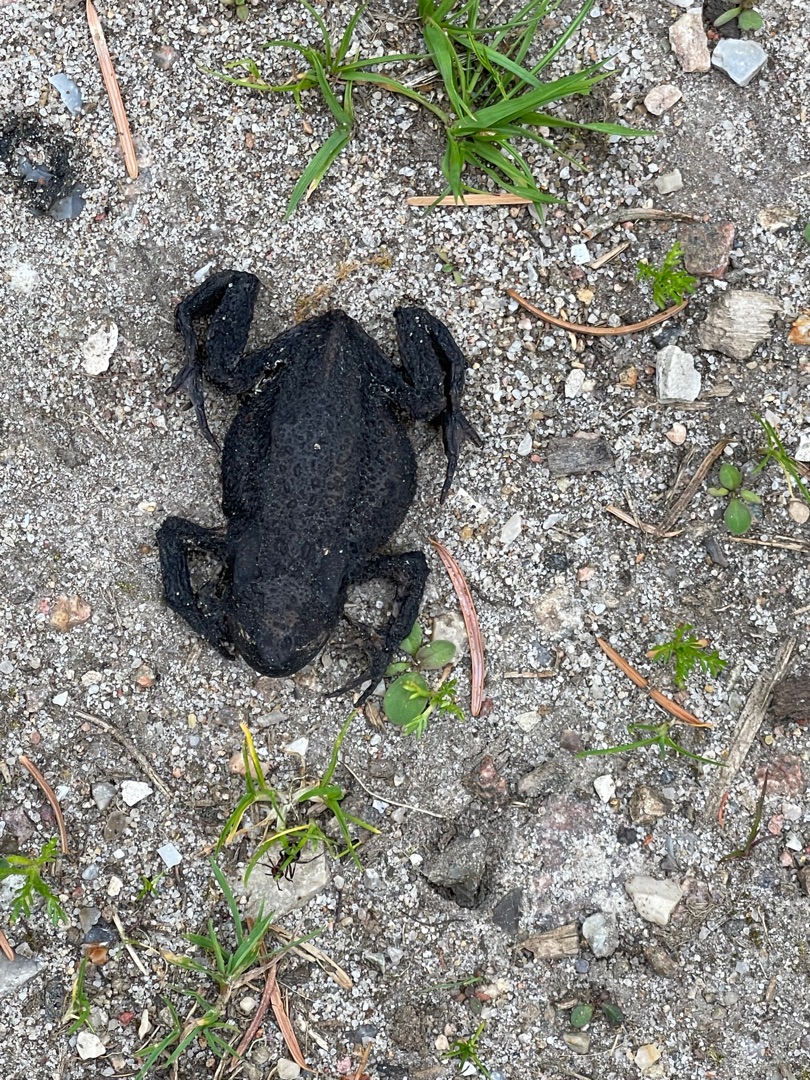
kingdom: Animalia
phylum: Chordata
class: Amphibia
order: Anura
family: Bufonidae
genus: Bufo
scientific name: Bufo bufo
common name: Skrubtudse
